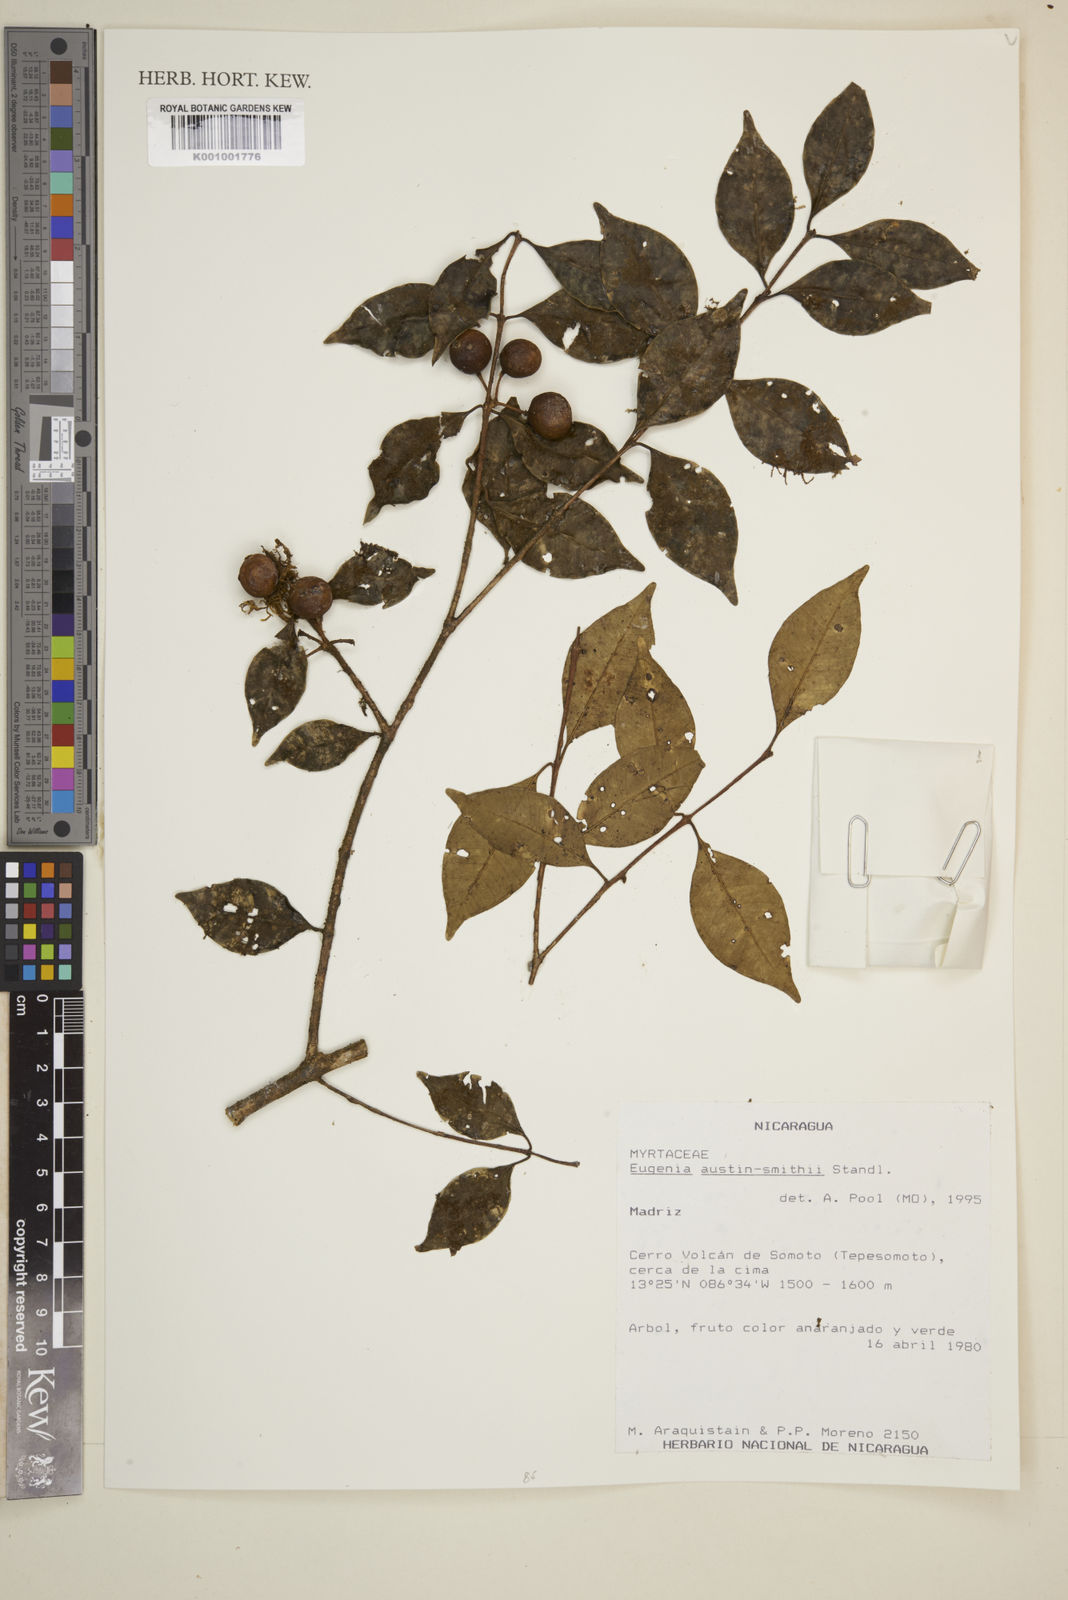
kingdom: Plantae
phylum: Tracheophyta
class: Magnoliopsida
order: Myrtales
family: Myrtaceae
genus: Eugenia
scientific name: Eugenia austin-smithii
